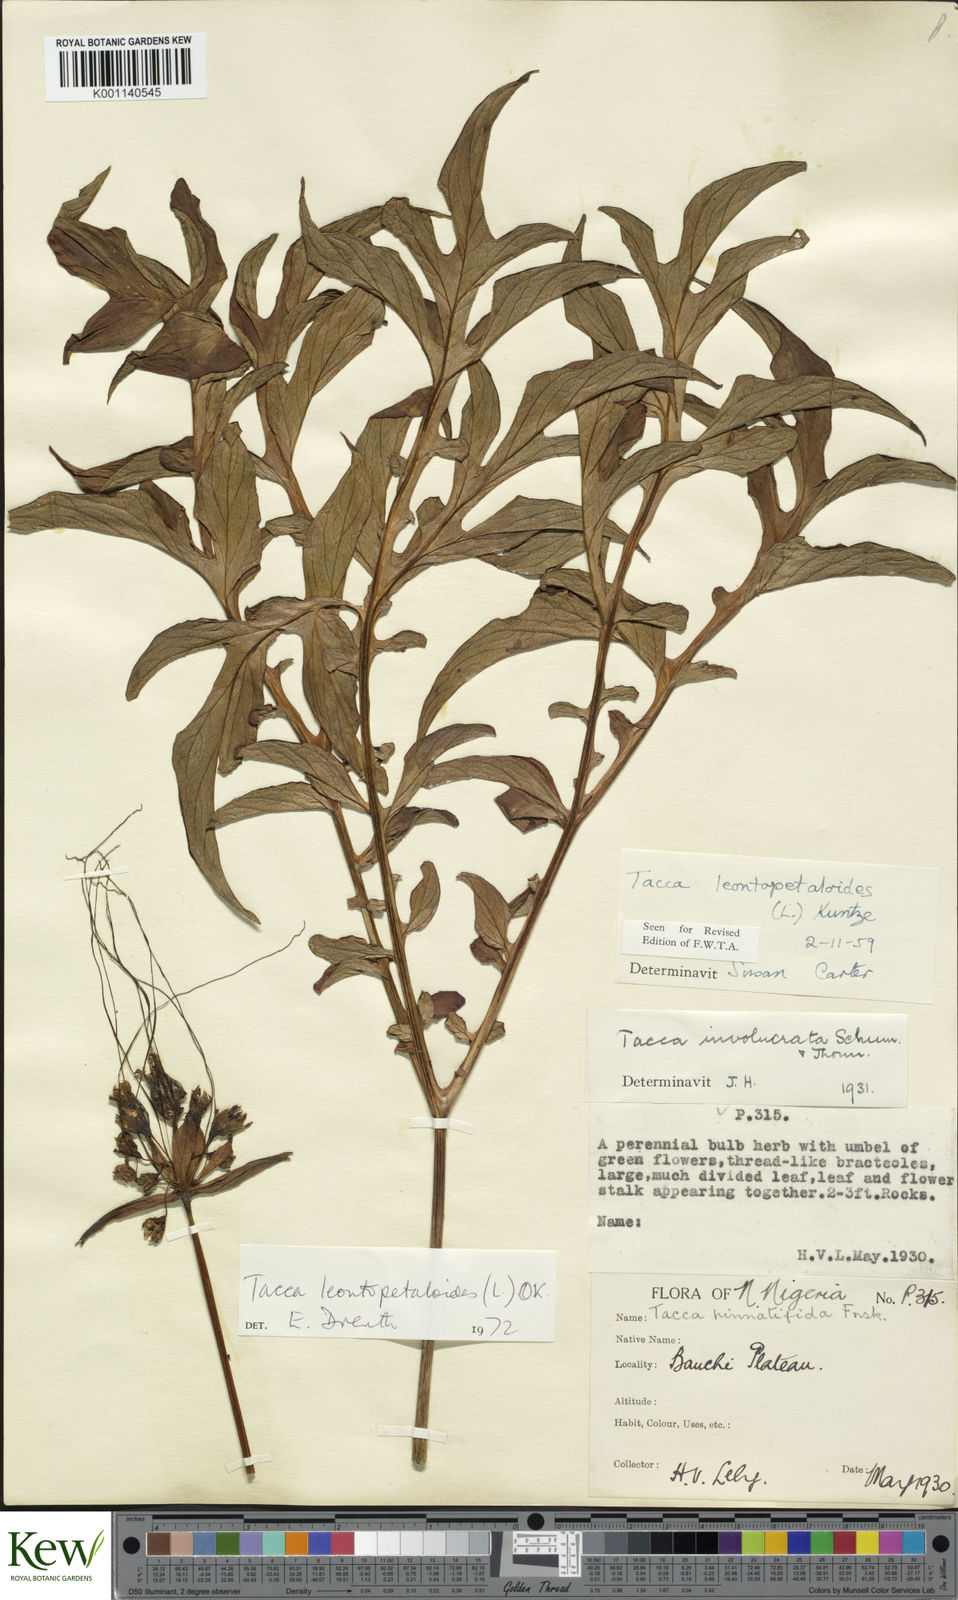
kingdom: Plantae
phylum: Tracheophyta
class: Liliopsida
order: Dioscoreales
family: Dioscoreaceae
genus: Tacca
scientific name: Tacca leontopetaloides
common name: Arrowroot
